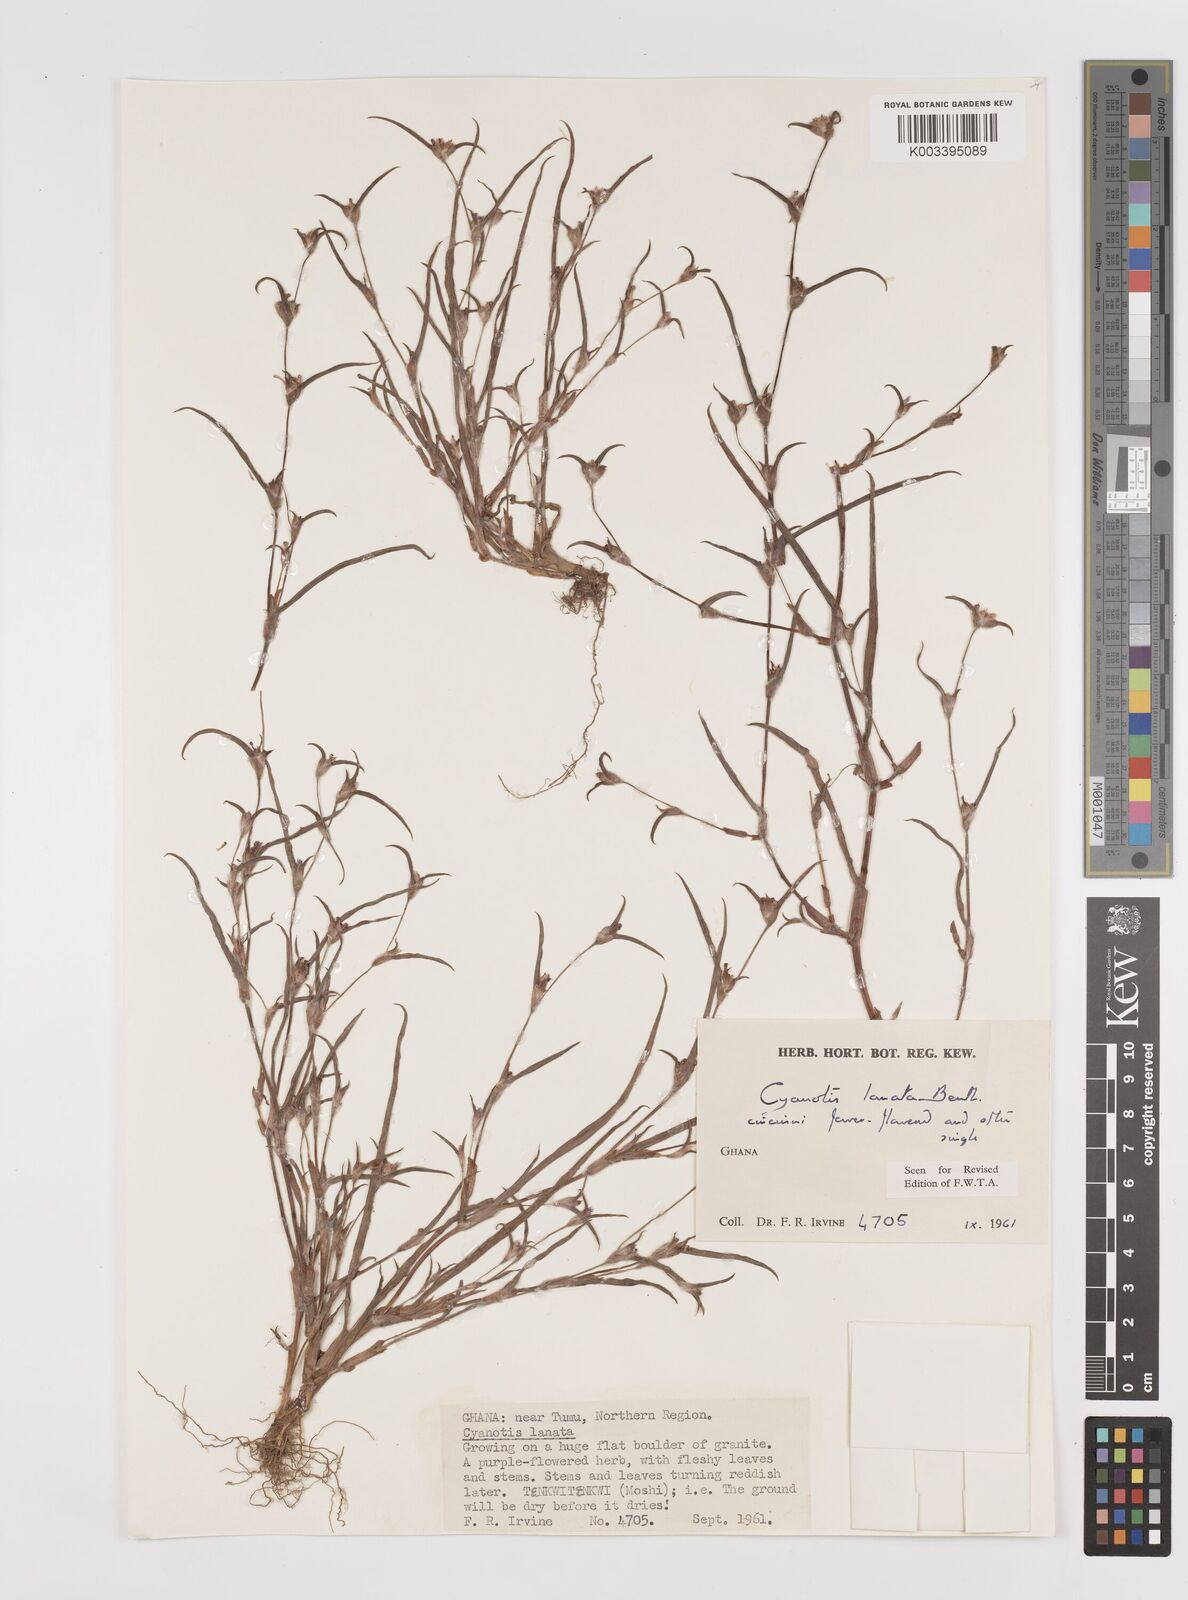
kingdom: Plantae
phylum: Tracheophyta
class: Liliopsida
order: Commelinales
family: Commelinaceae
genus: Cyanotis
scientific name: Cyanotis lanata
